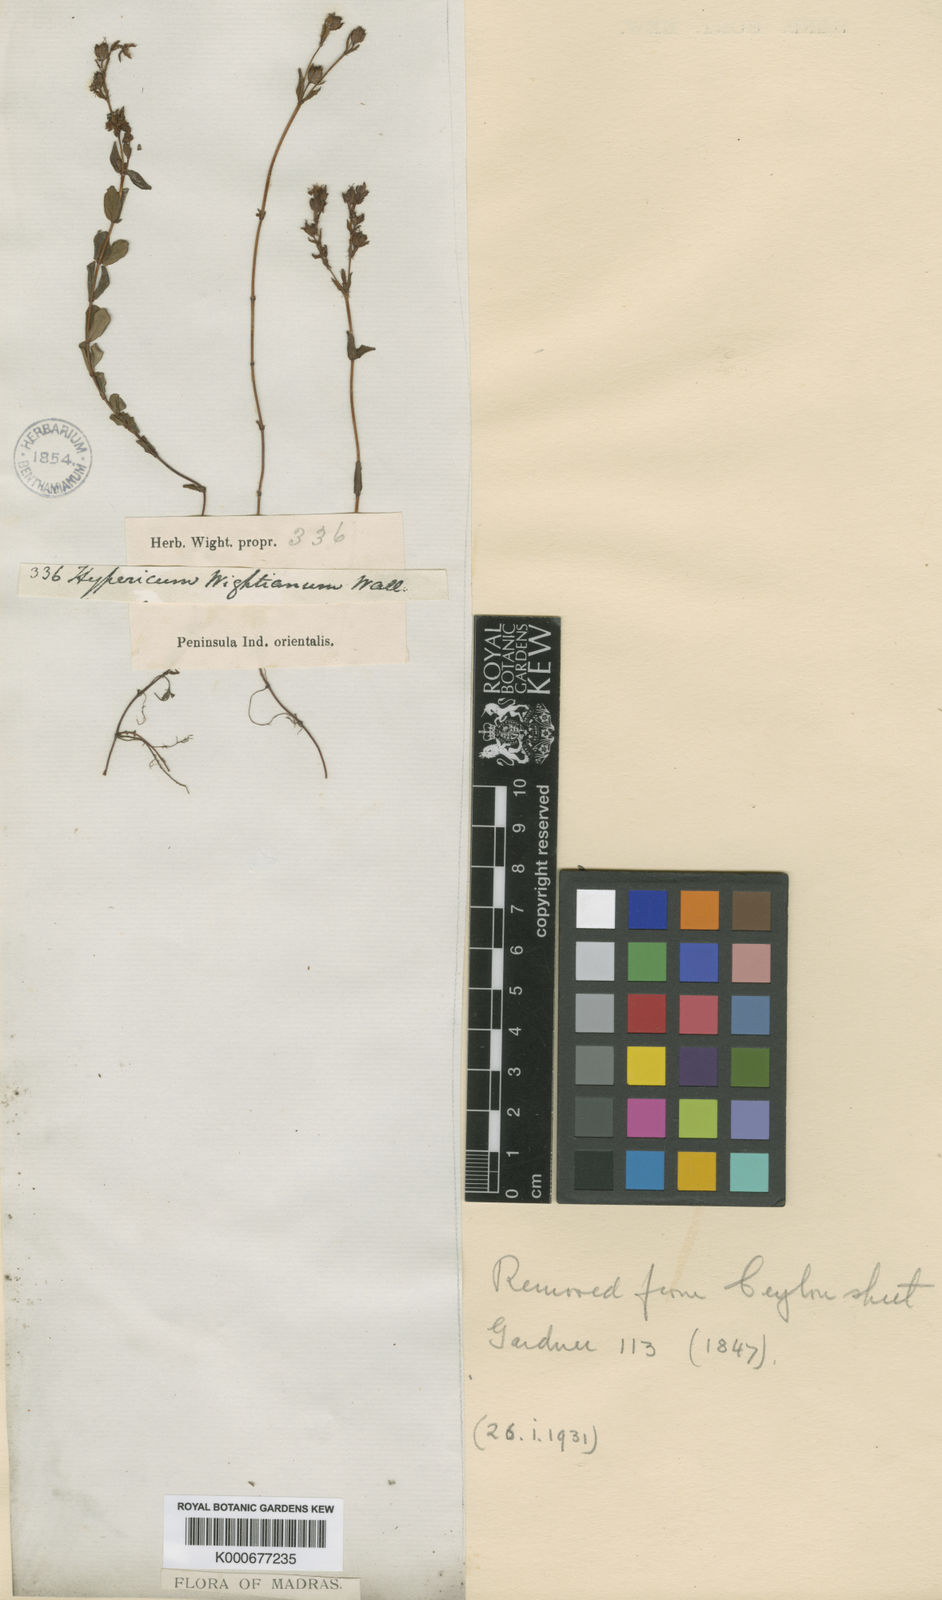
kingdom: Plantae
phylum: Tracheophyta
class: Magnoliopsida
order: Malpighiales
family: Hypericaceae
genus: Hypericum
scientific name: Hypericum
